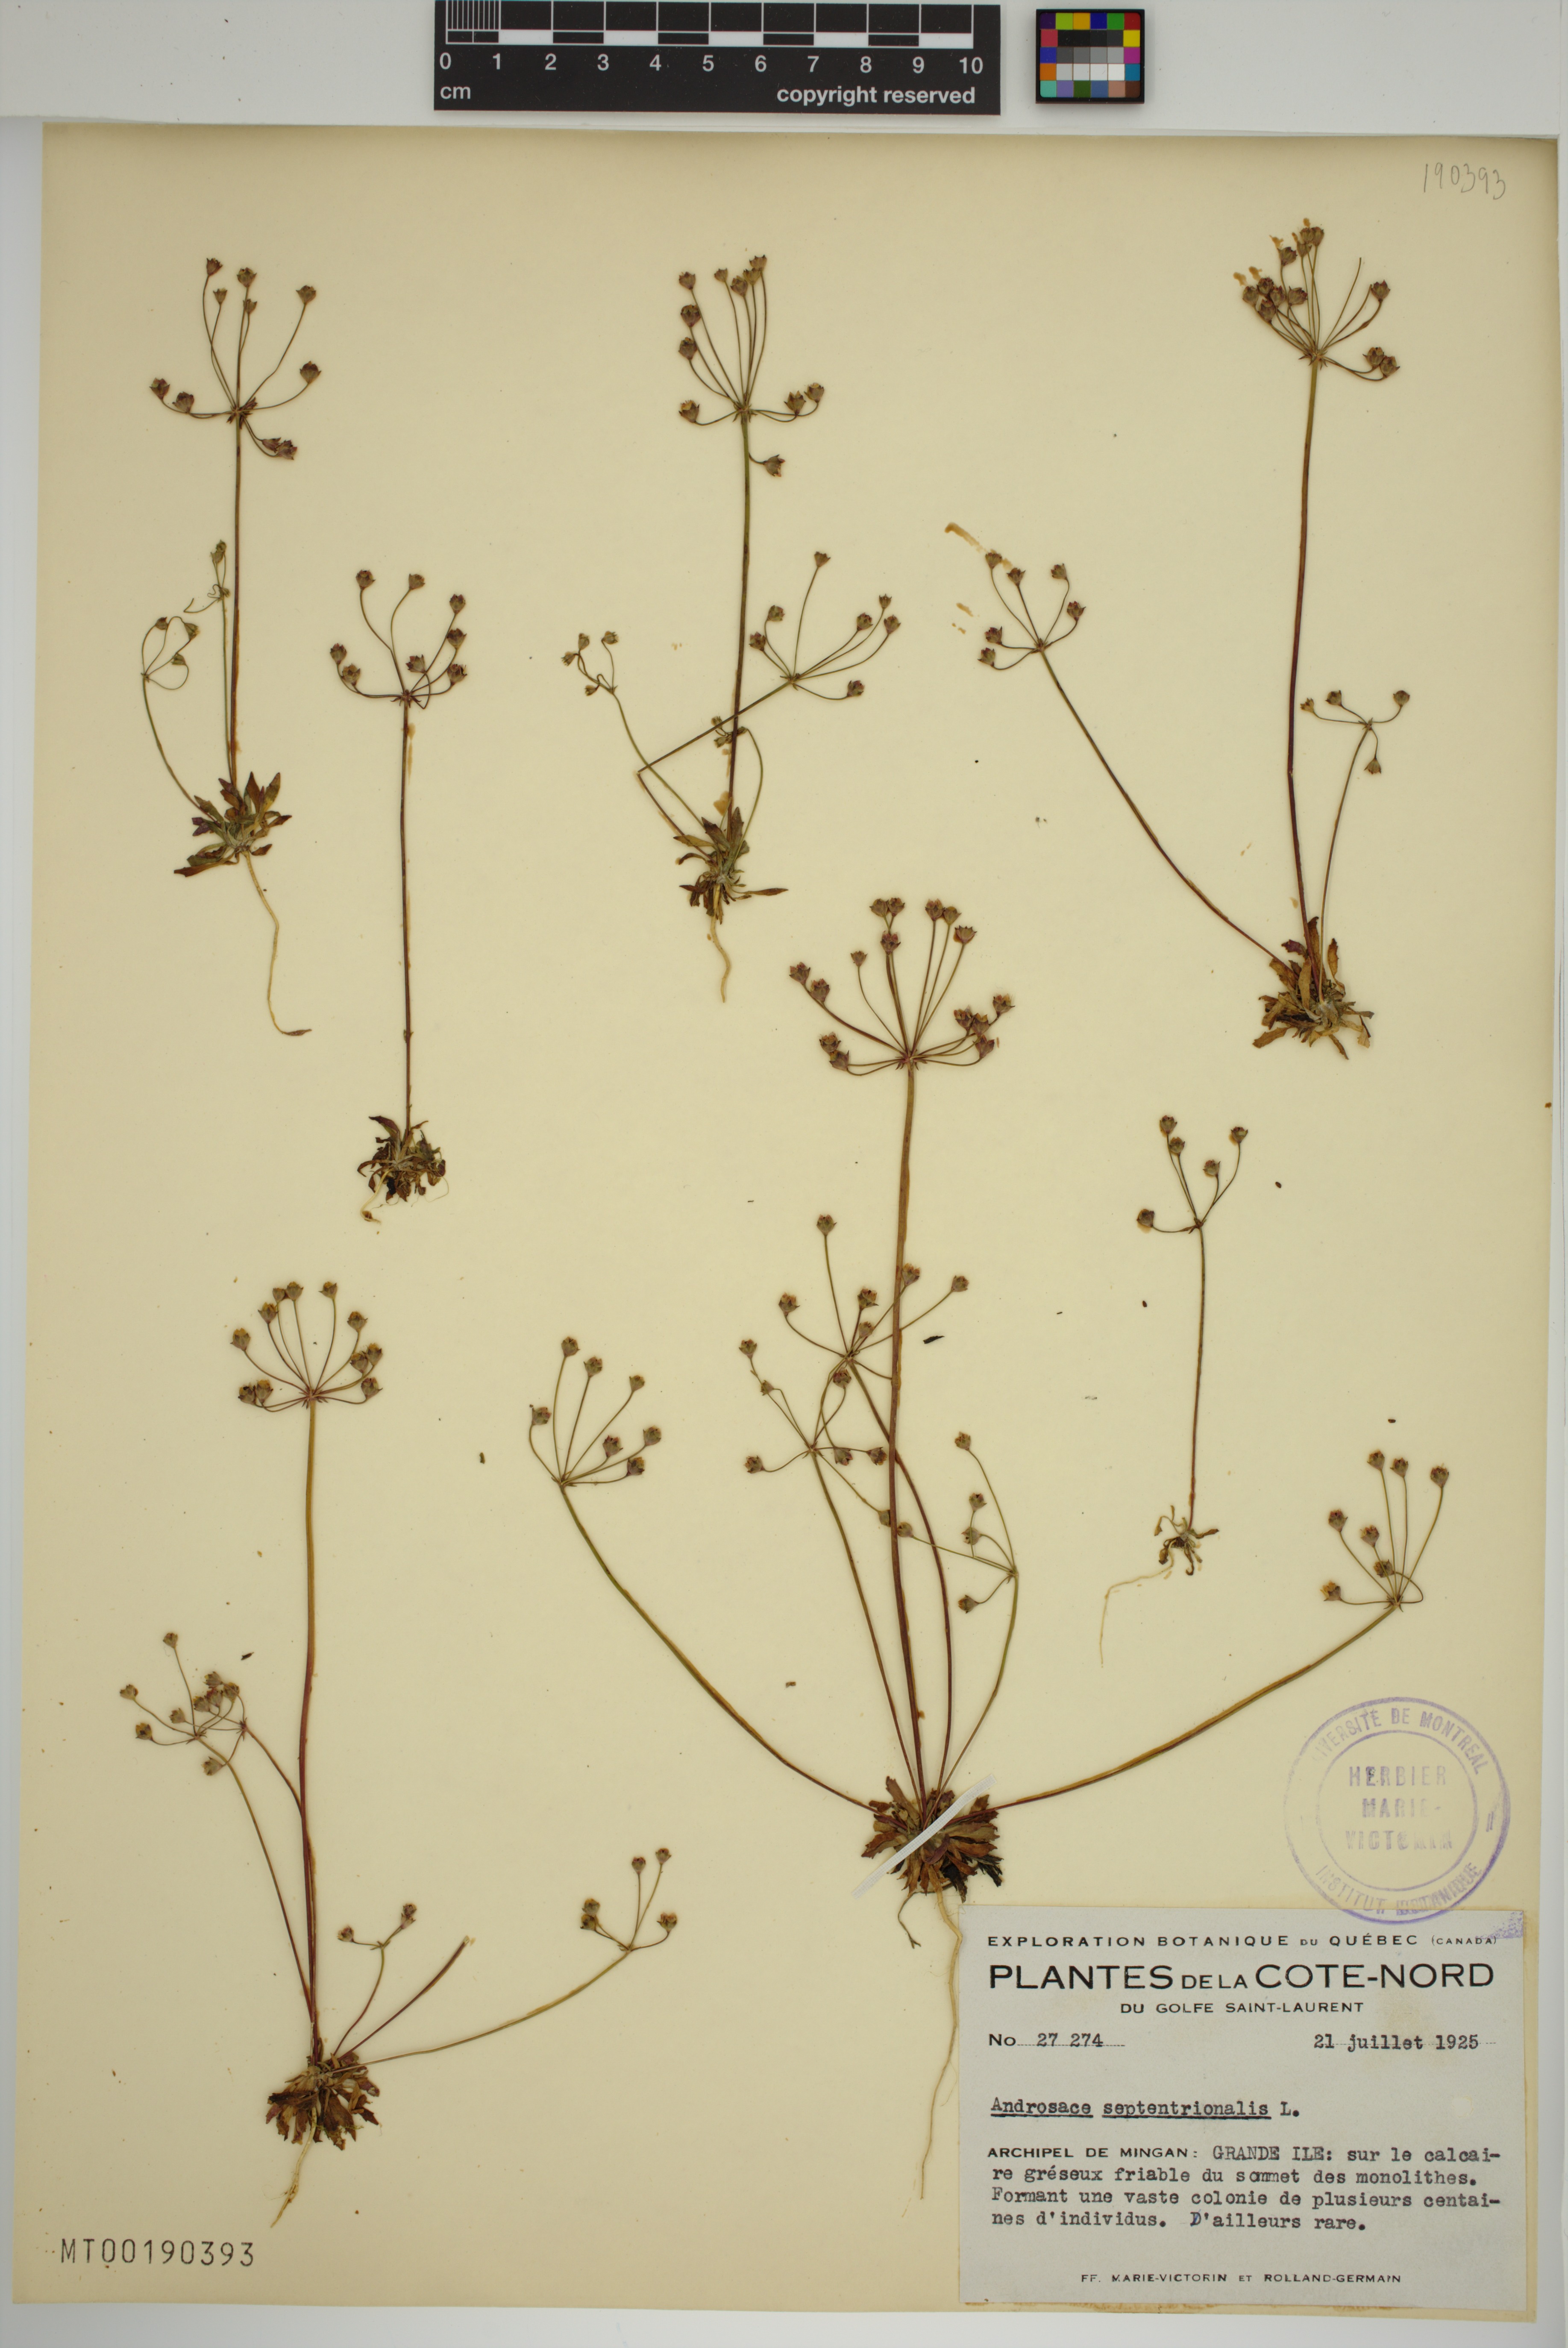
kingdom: Plantae
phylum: Tracheophyta
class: Magnoliopsida
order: Ericales
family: Primulaceae
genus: Androsace
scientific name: Androsace septentrionalis
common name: Hairy northern fairy-candelabra
